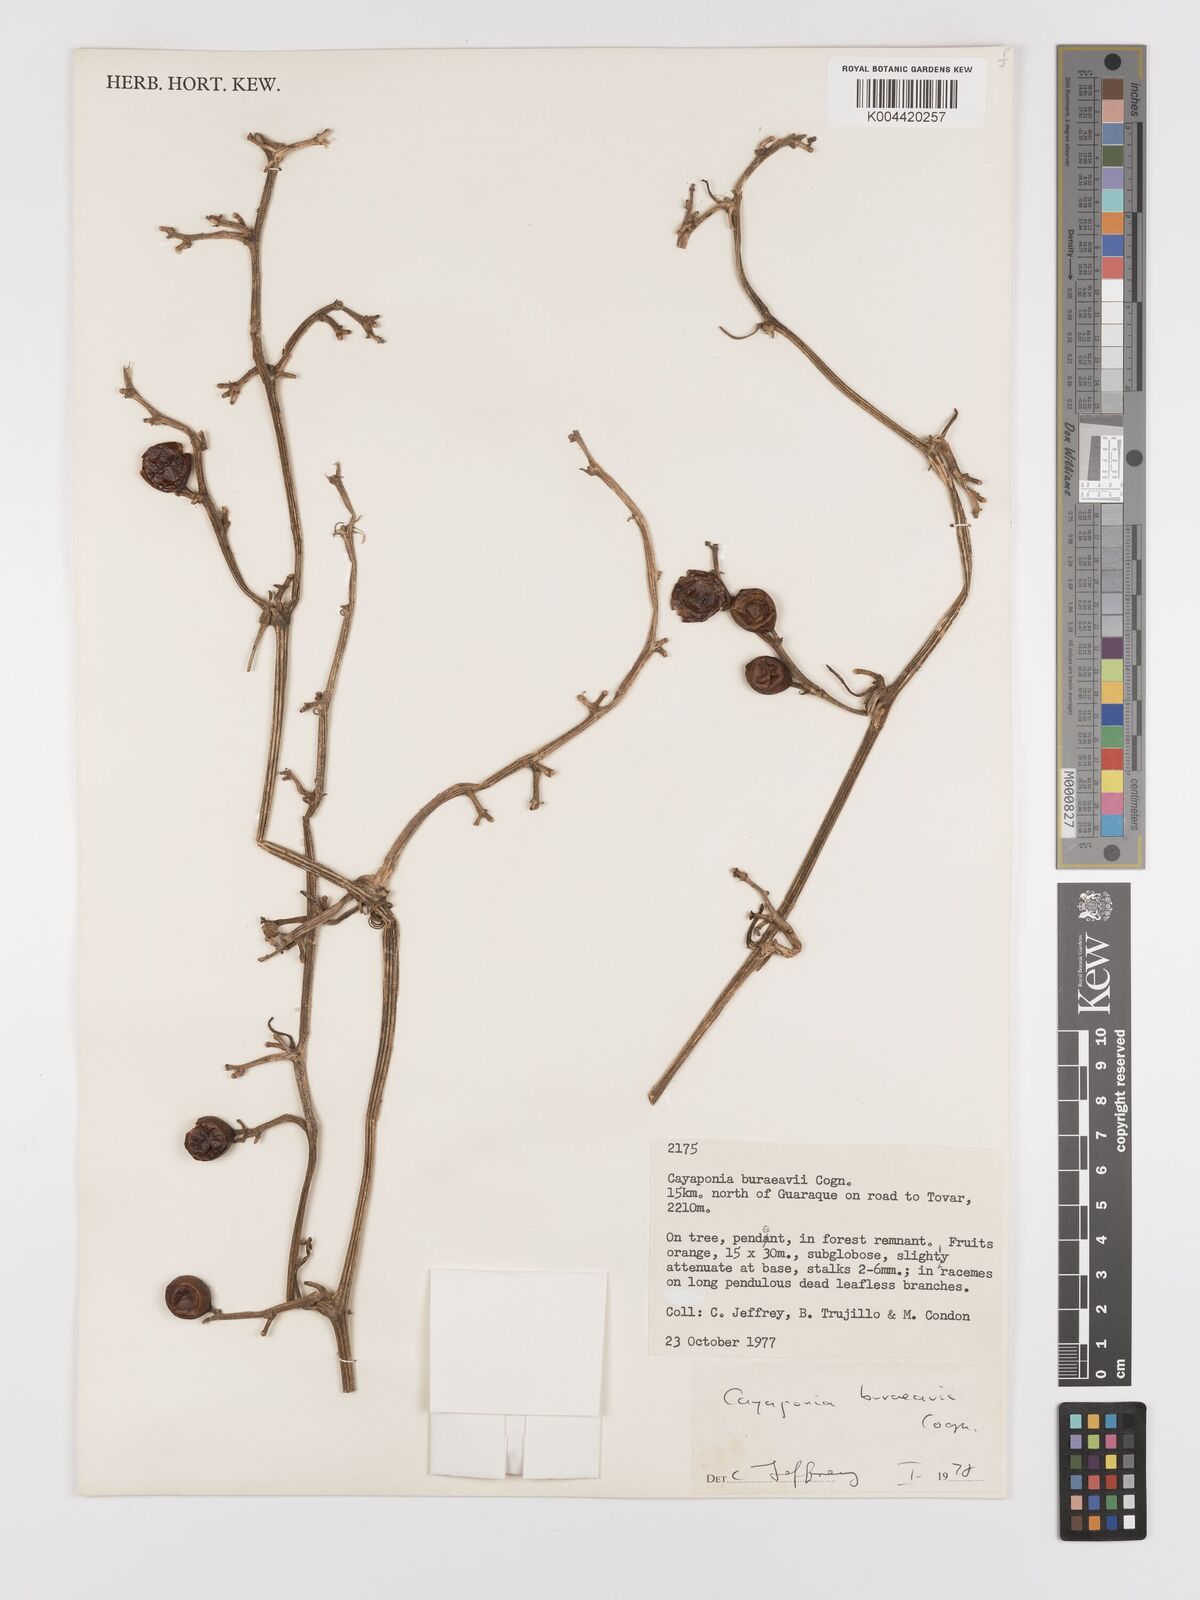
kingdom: Plantae
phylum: Tracheophyta
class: Magnoliopsida
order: Cucurbitales
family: Cucurbitaceae
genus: Cayaponia
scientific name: Cayaponia buraeavii
